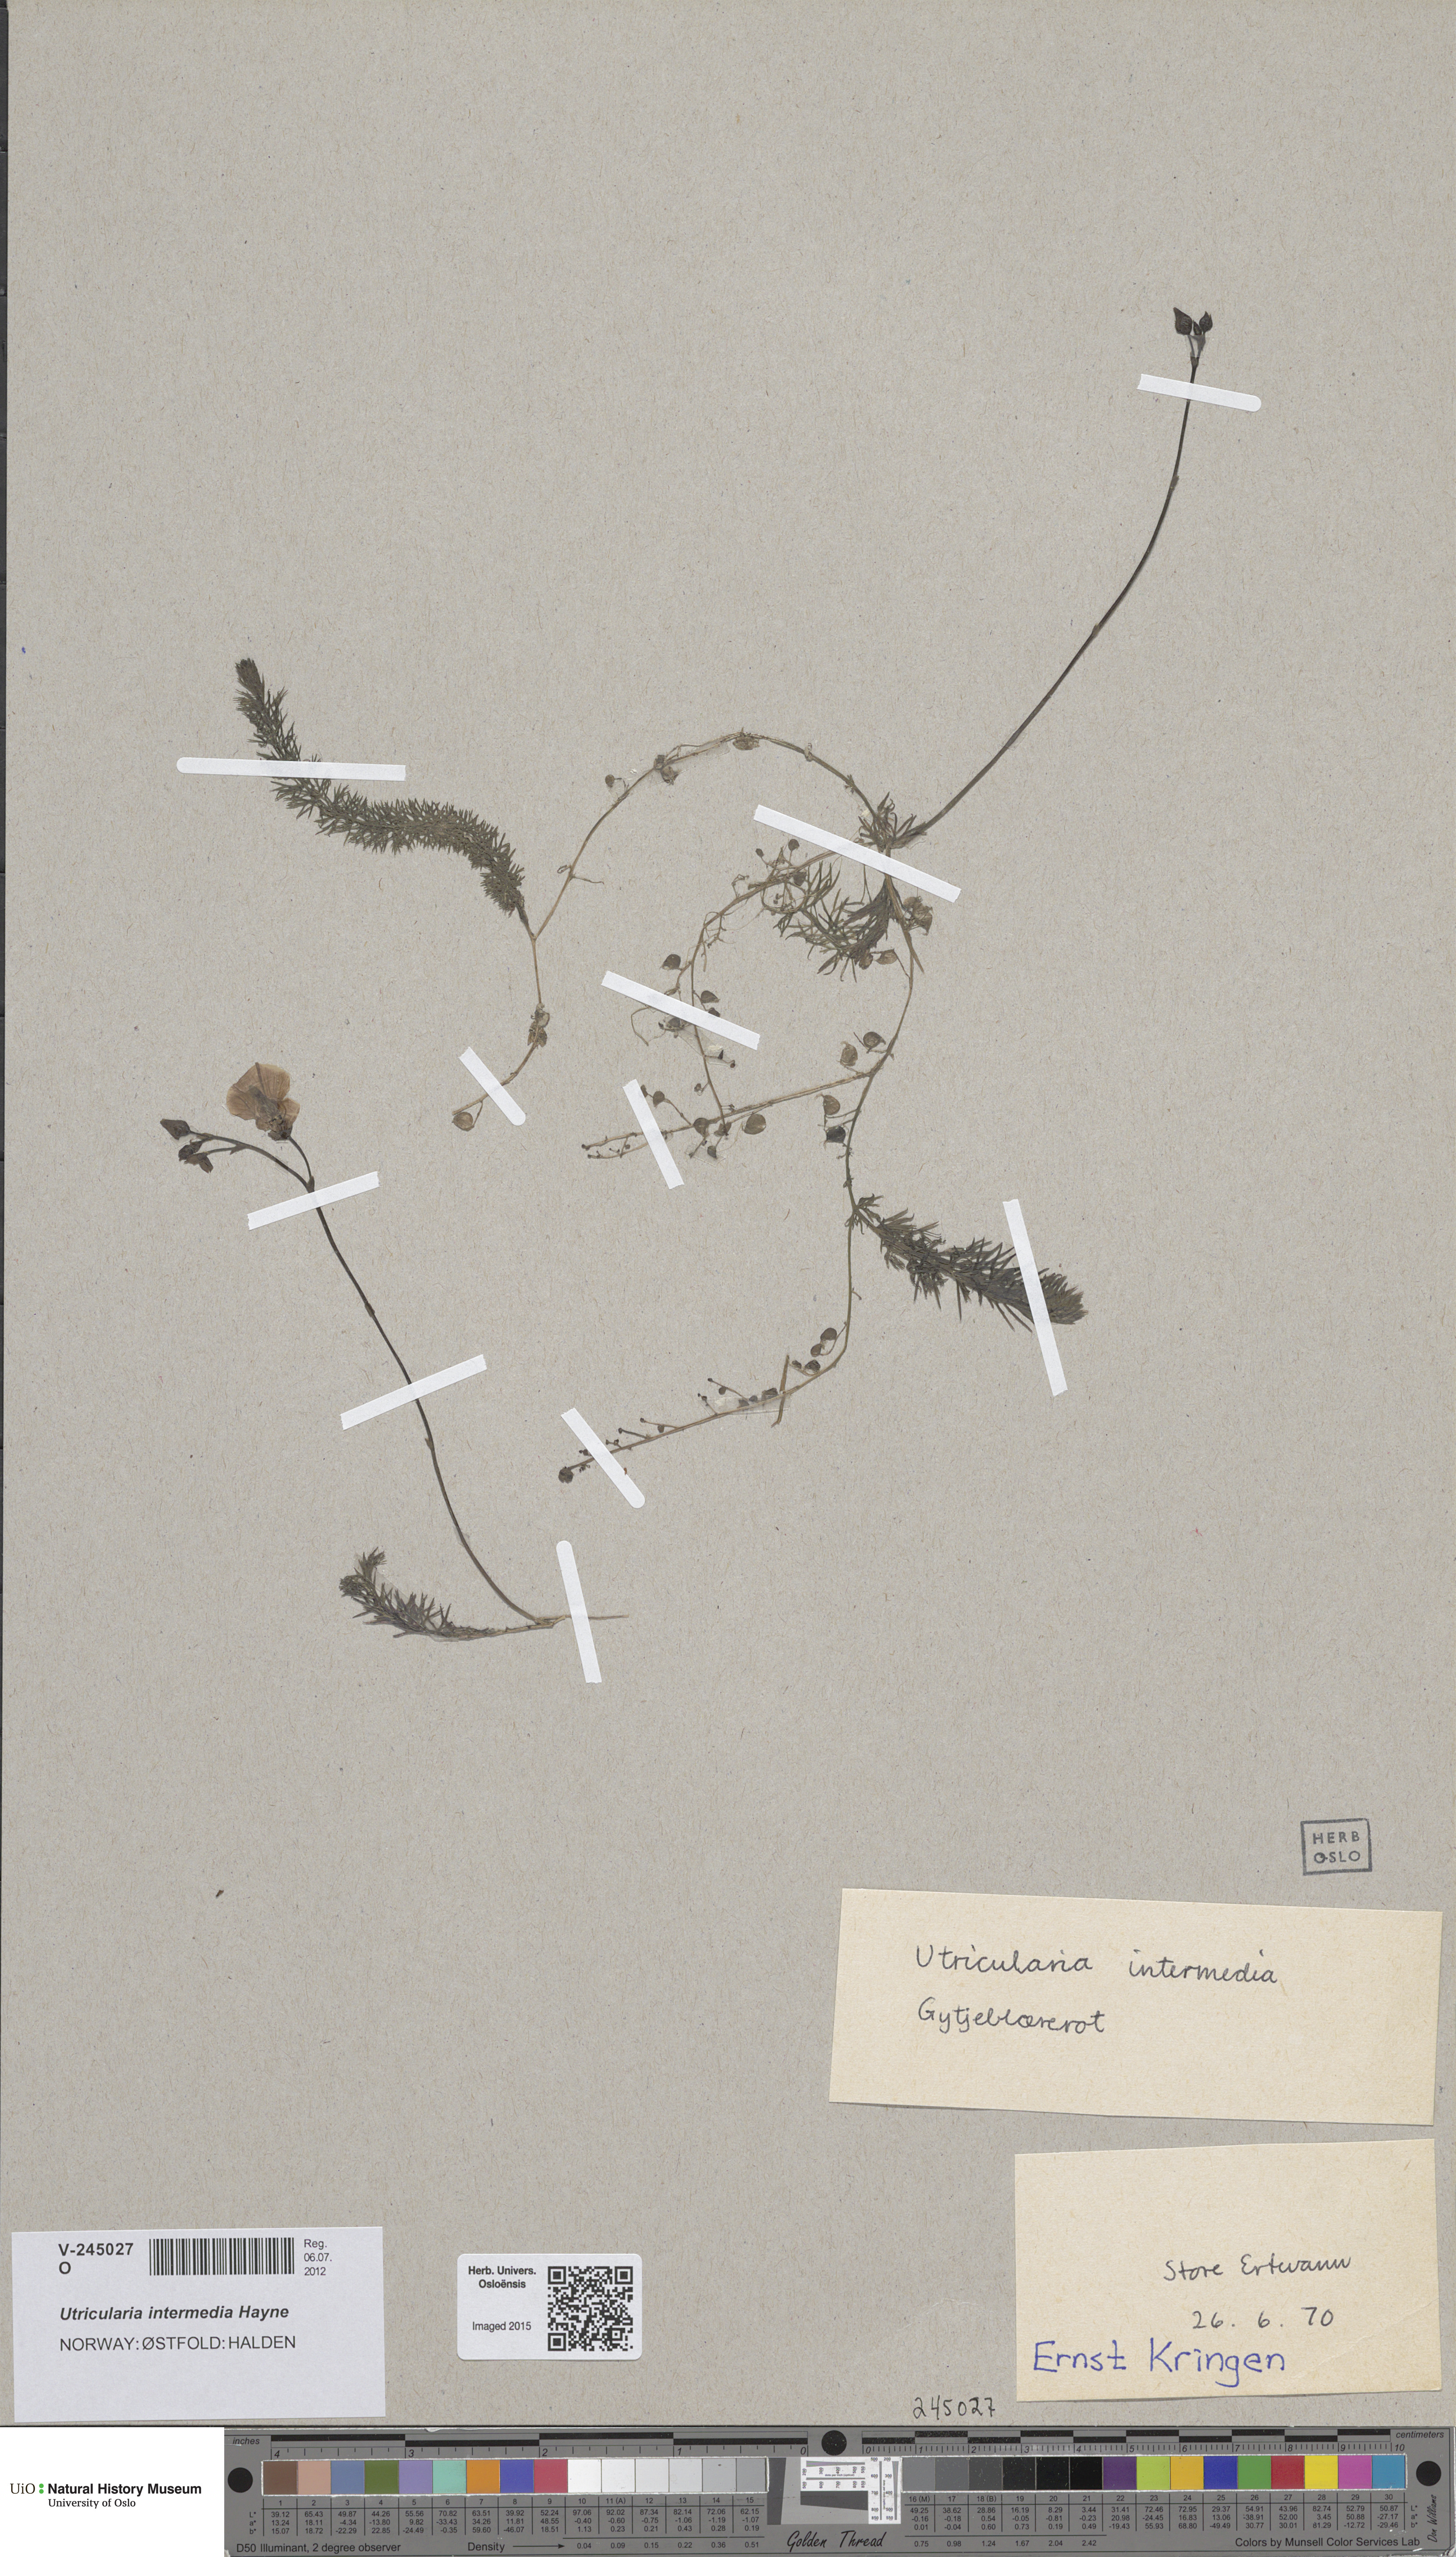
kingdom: Plantae
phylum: Tracheophyta
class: Magnoliopsida
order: Lamiales
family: Lentibulariaceae
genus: Utricularia
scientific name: Utricularia intermedia
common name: Intermediate bladderwort
